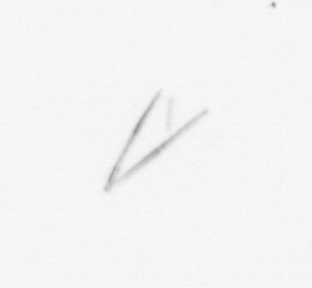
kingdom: Chromista
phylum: Ochrophyta
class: Bacillariophyceae
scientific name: Bacillariophyceae
